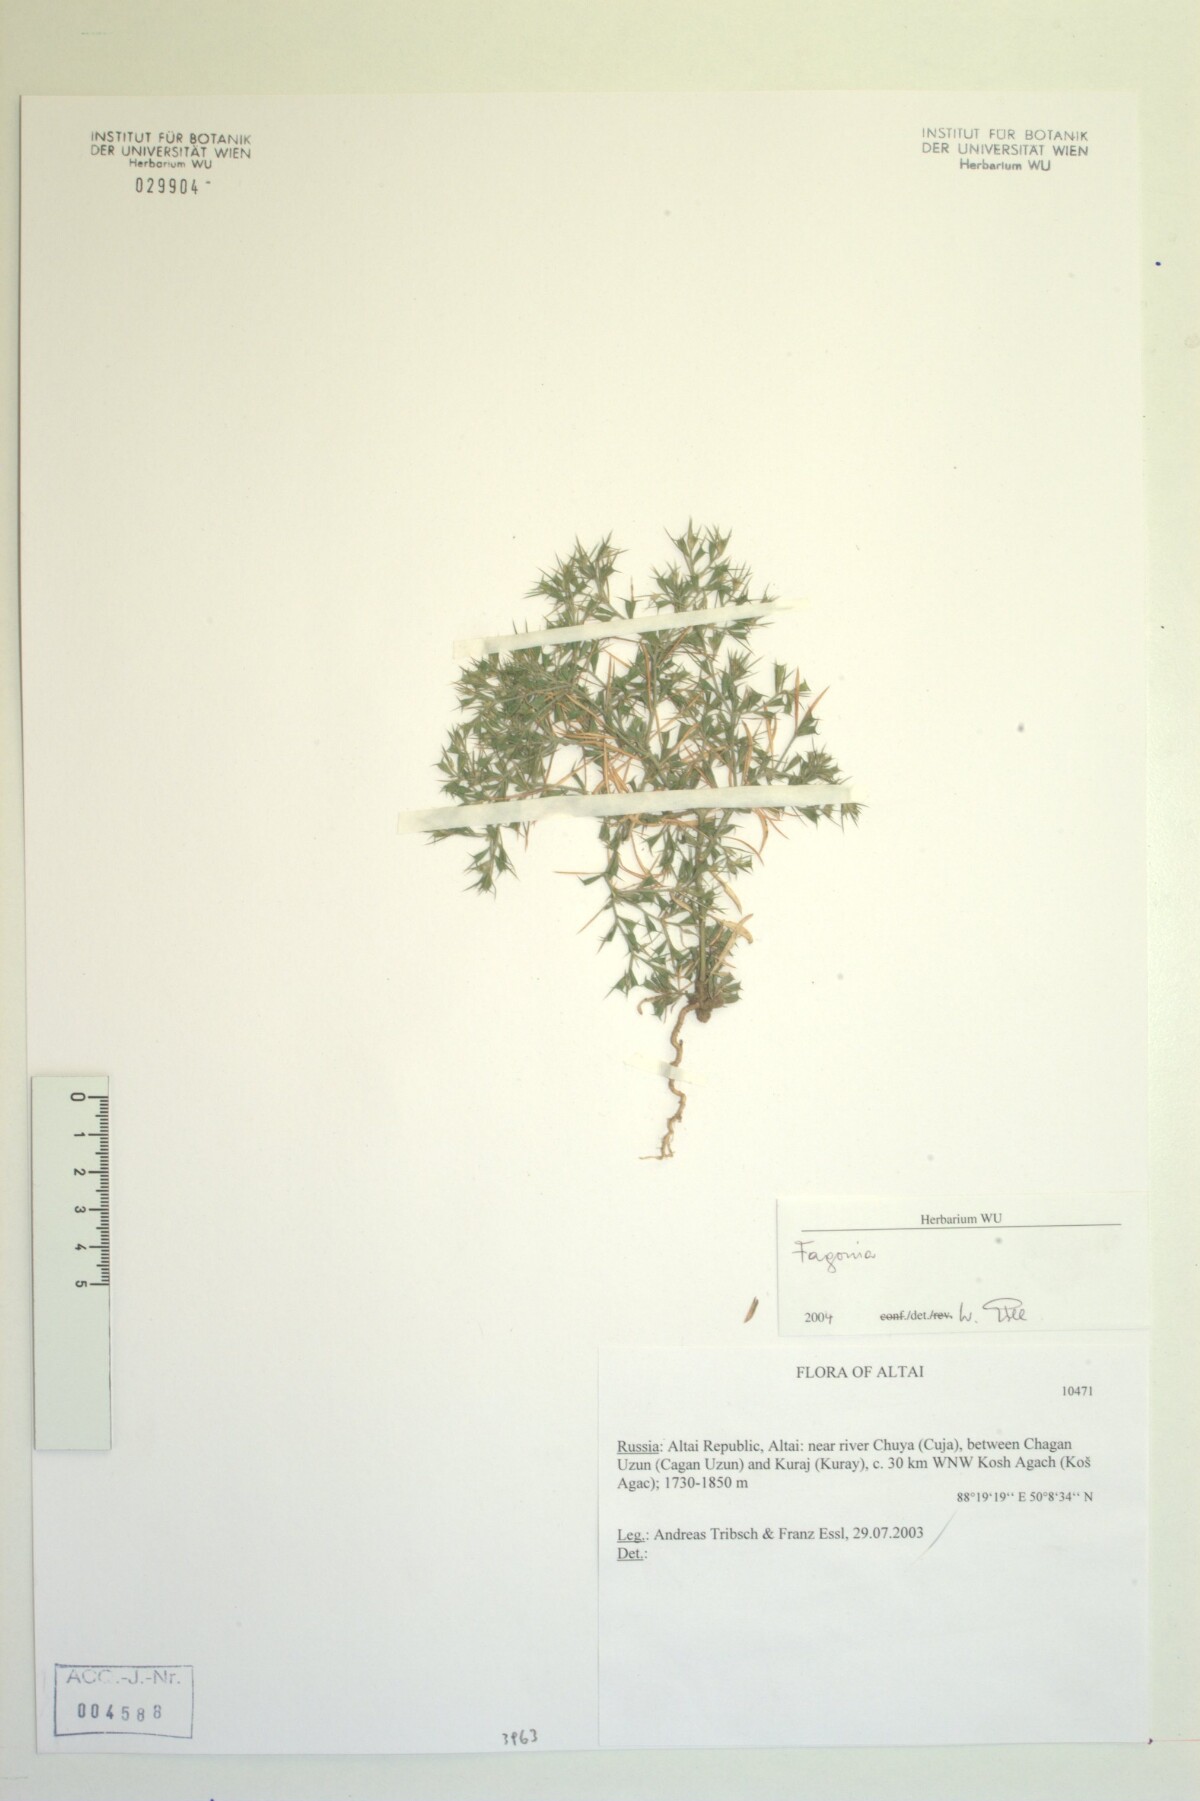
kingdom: Plantae
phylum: Tracheophyta
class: Magnoliopsida
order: Zygophyllales
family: Zygophyllaceae
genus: Fagonia
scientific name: Fagonia
